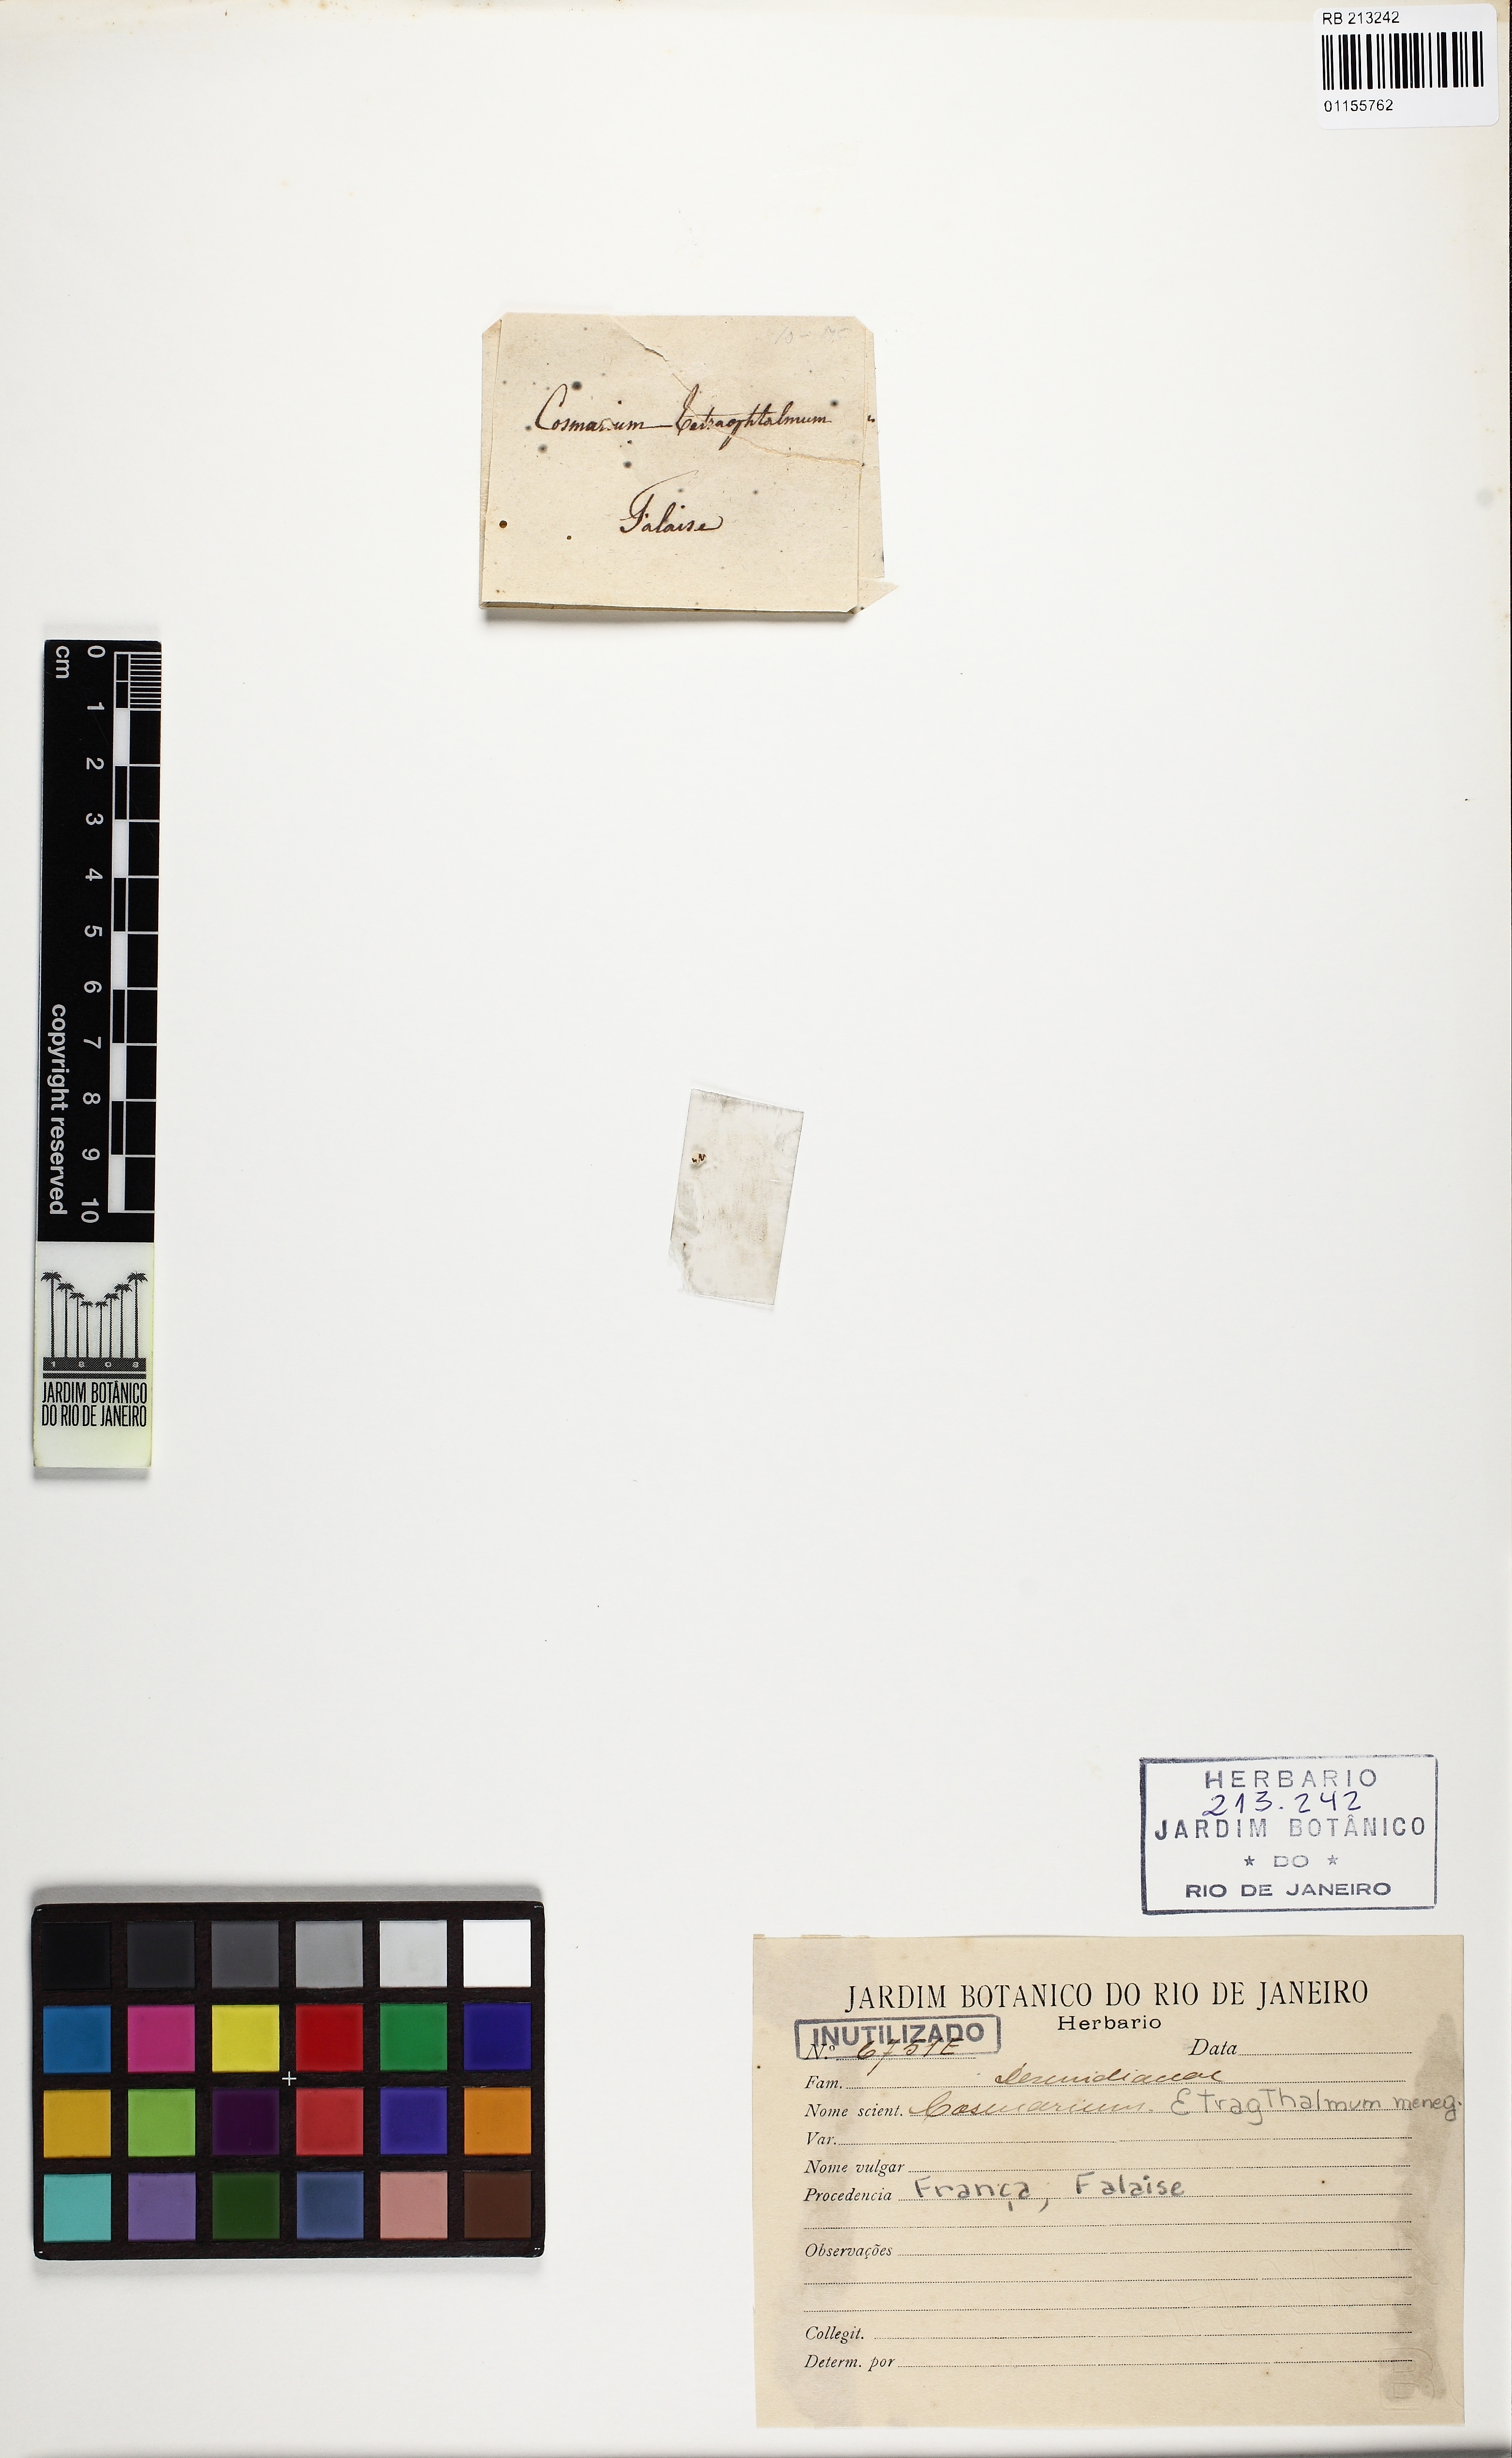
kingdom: Plantae
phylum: Charophyta
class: Conjugatophyceae
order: Desmidiales
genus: Cosmarium
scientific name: Cosmarium tetraophthalmum
